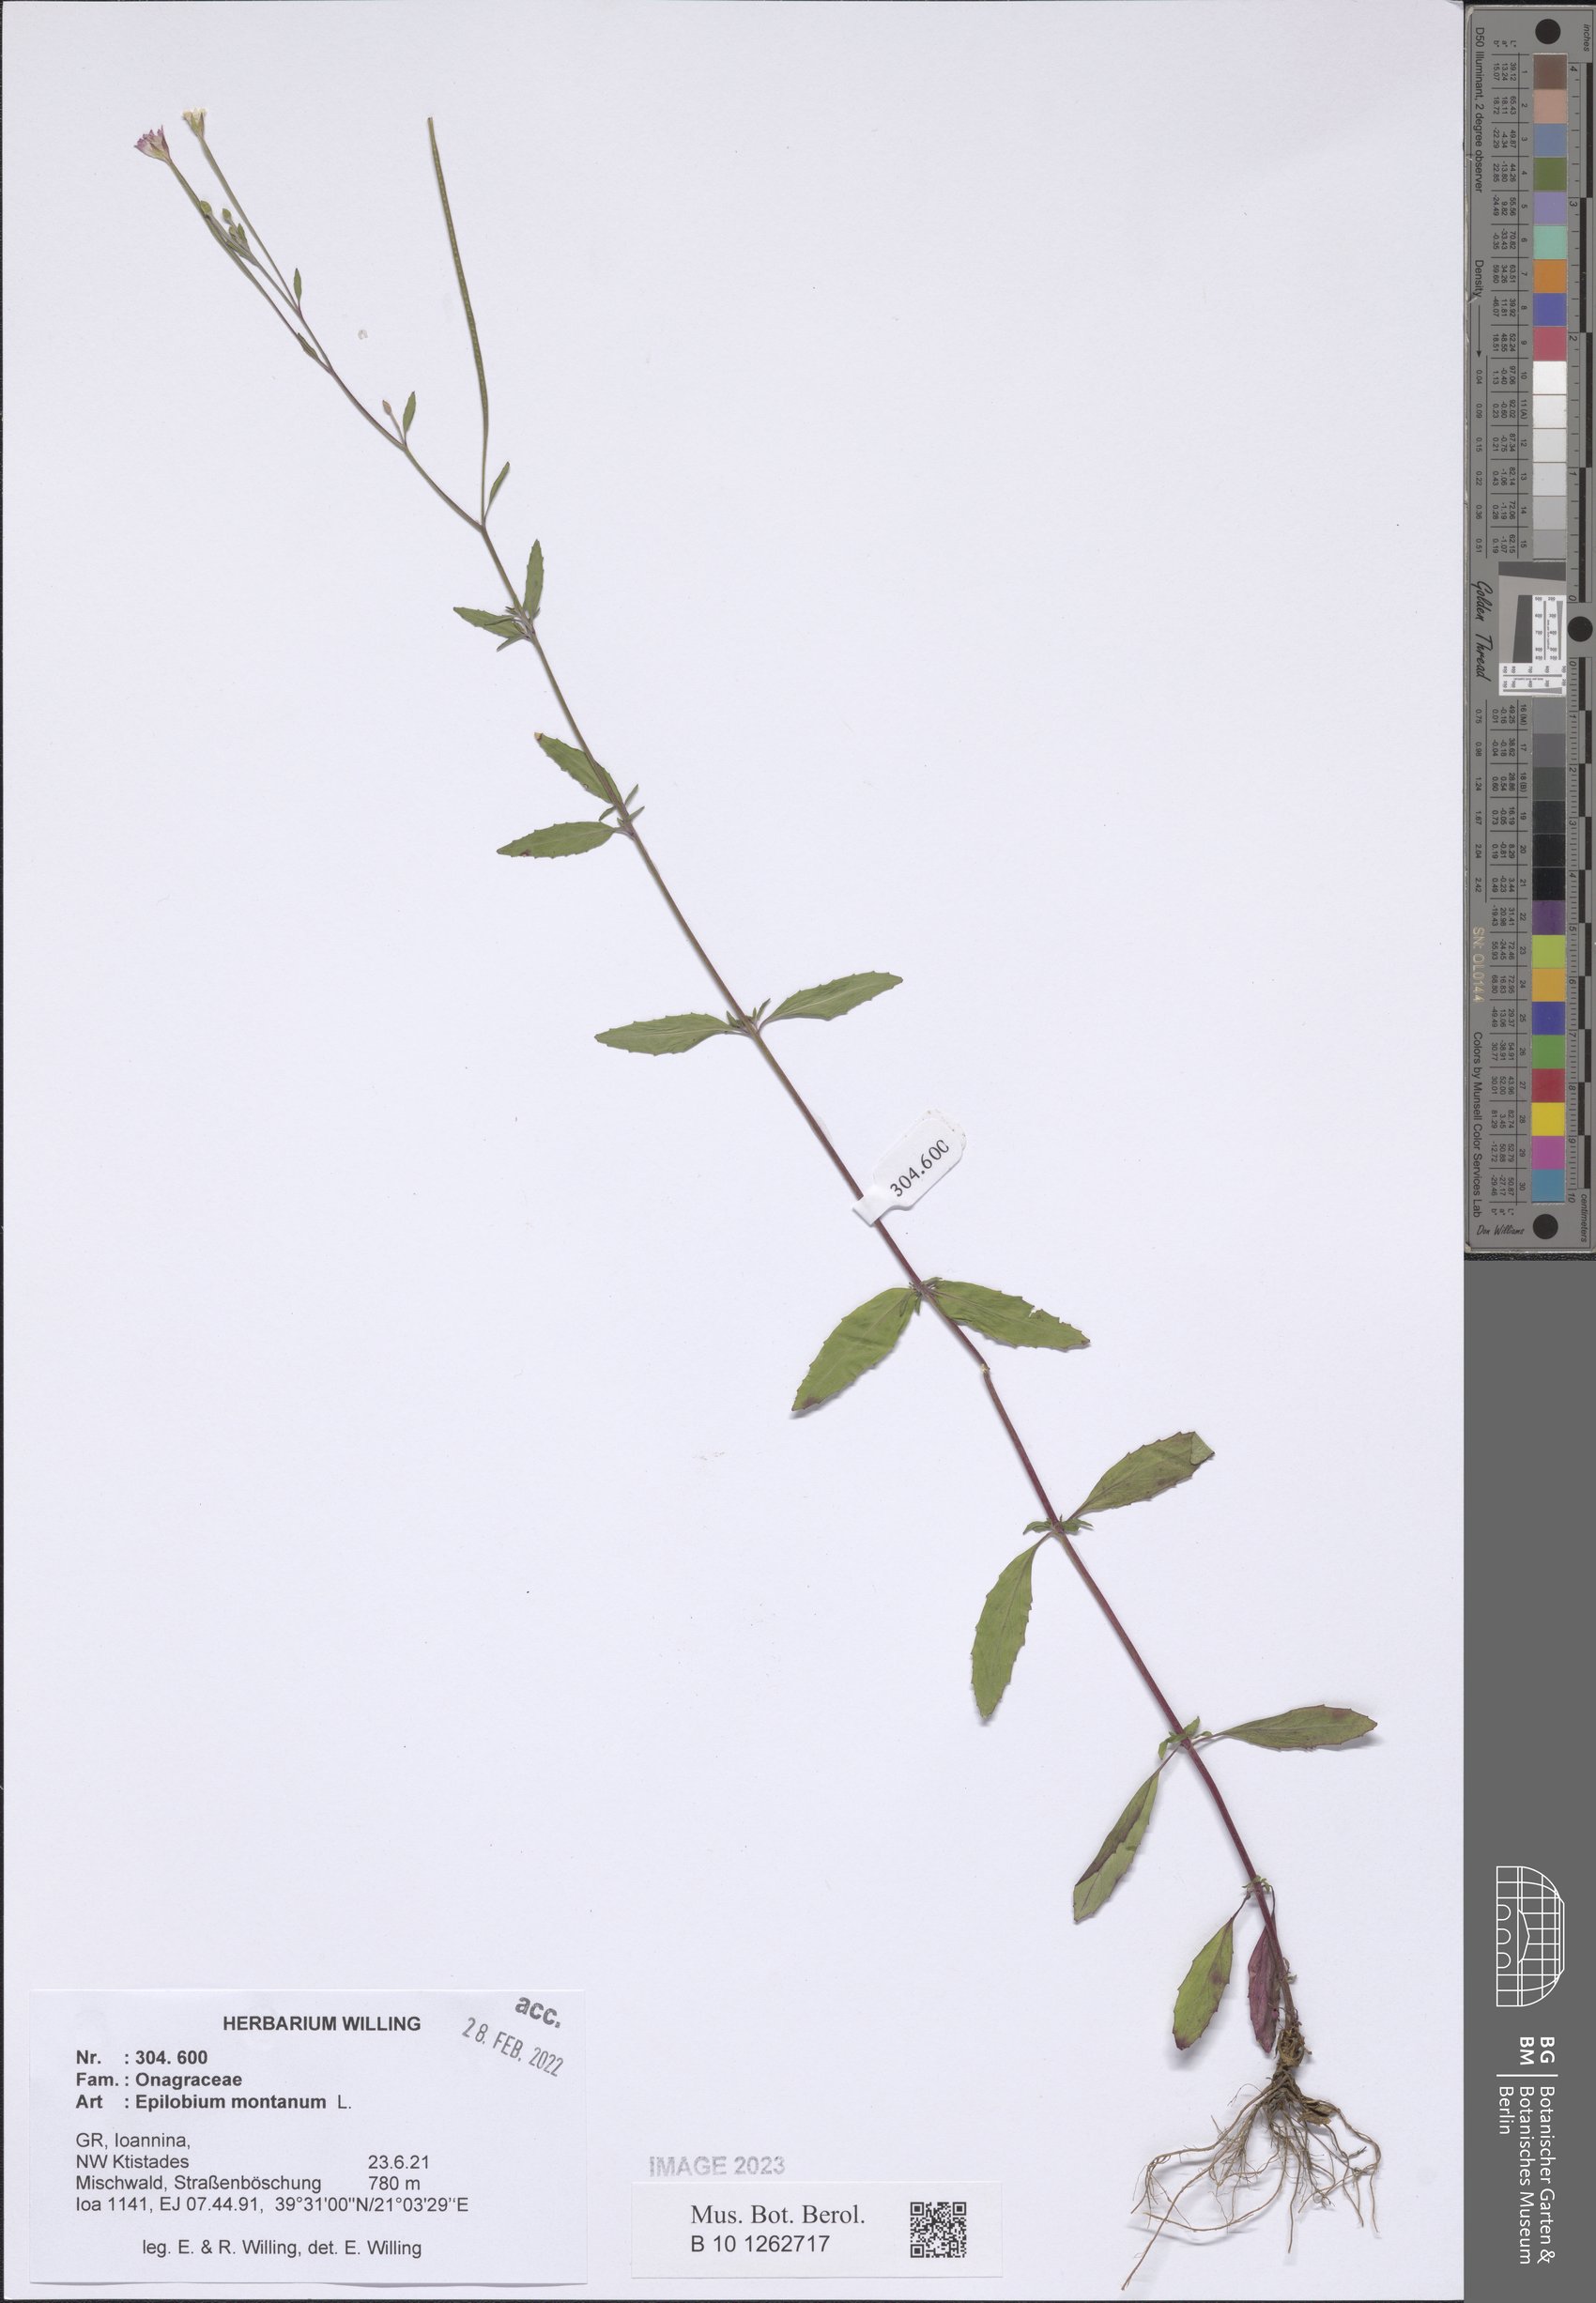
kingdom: Plantae
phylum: Tracheophyta
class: Magnoliopsida
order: Myrtales
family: Onagraceae
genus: Epilobium
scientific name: Epilobium montanum
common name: Broad-leaved willowherb
